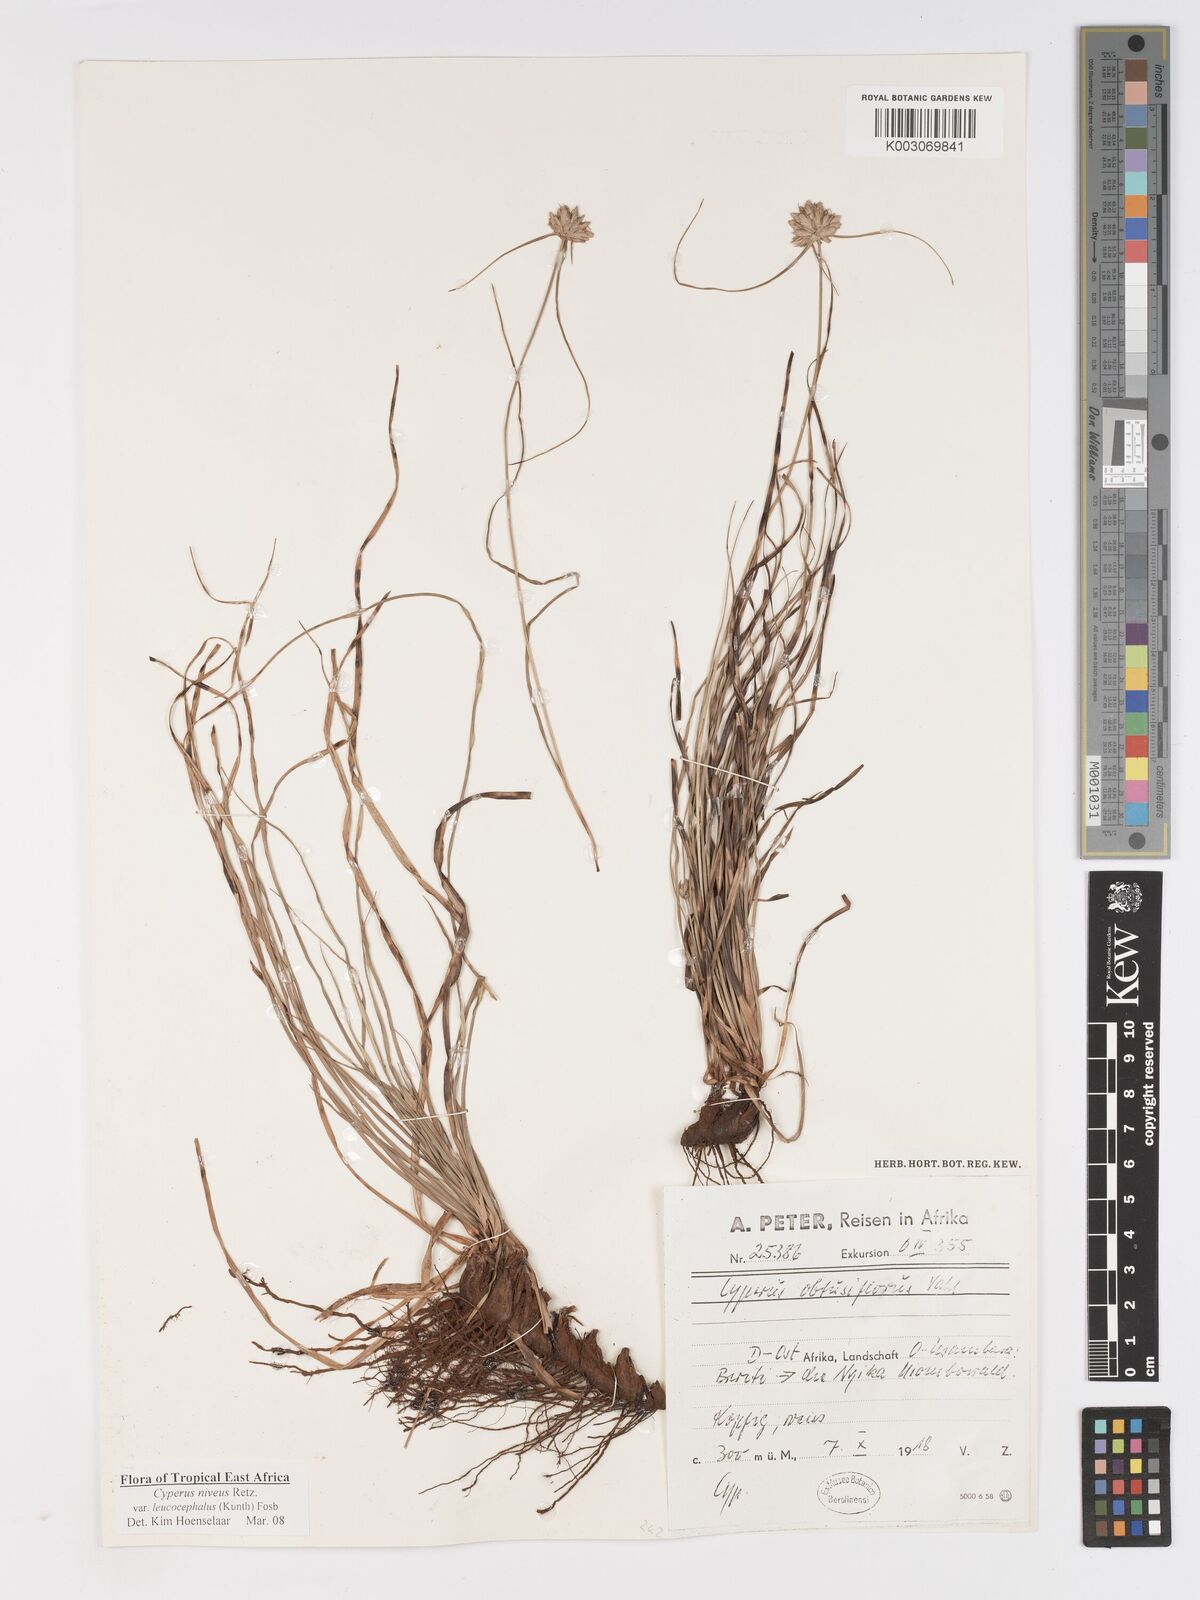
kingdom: Plantae
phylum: Tracheophyta
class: Liliopsida
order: Poales
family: Cyperaceae
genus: Cyperus
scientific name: Cyperus niveus
